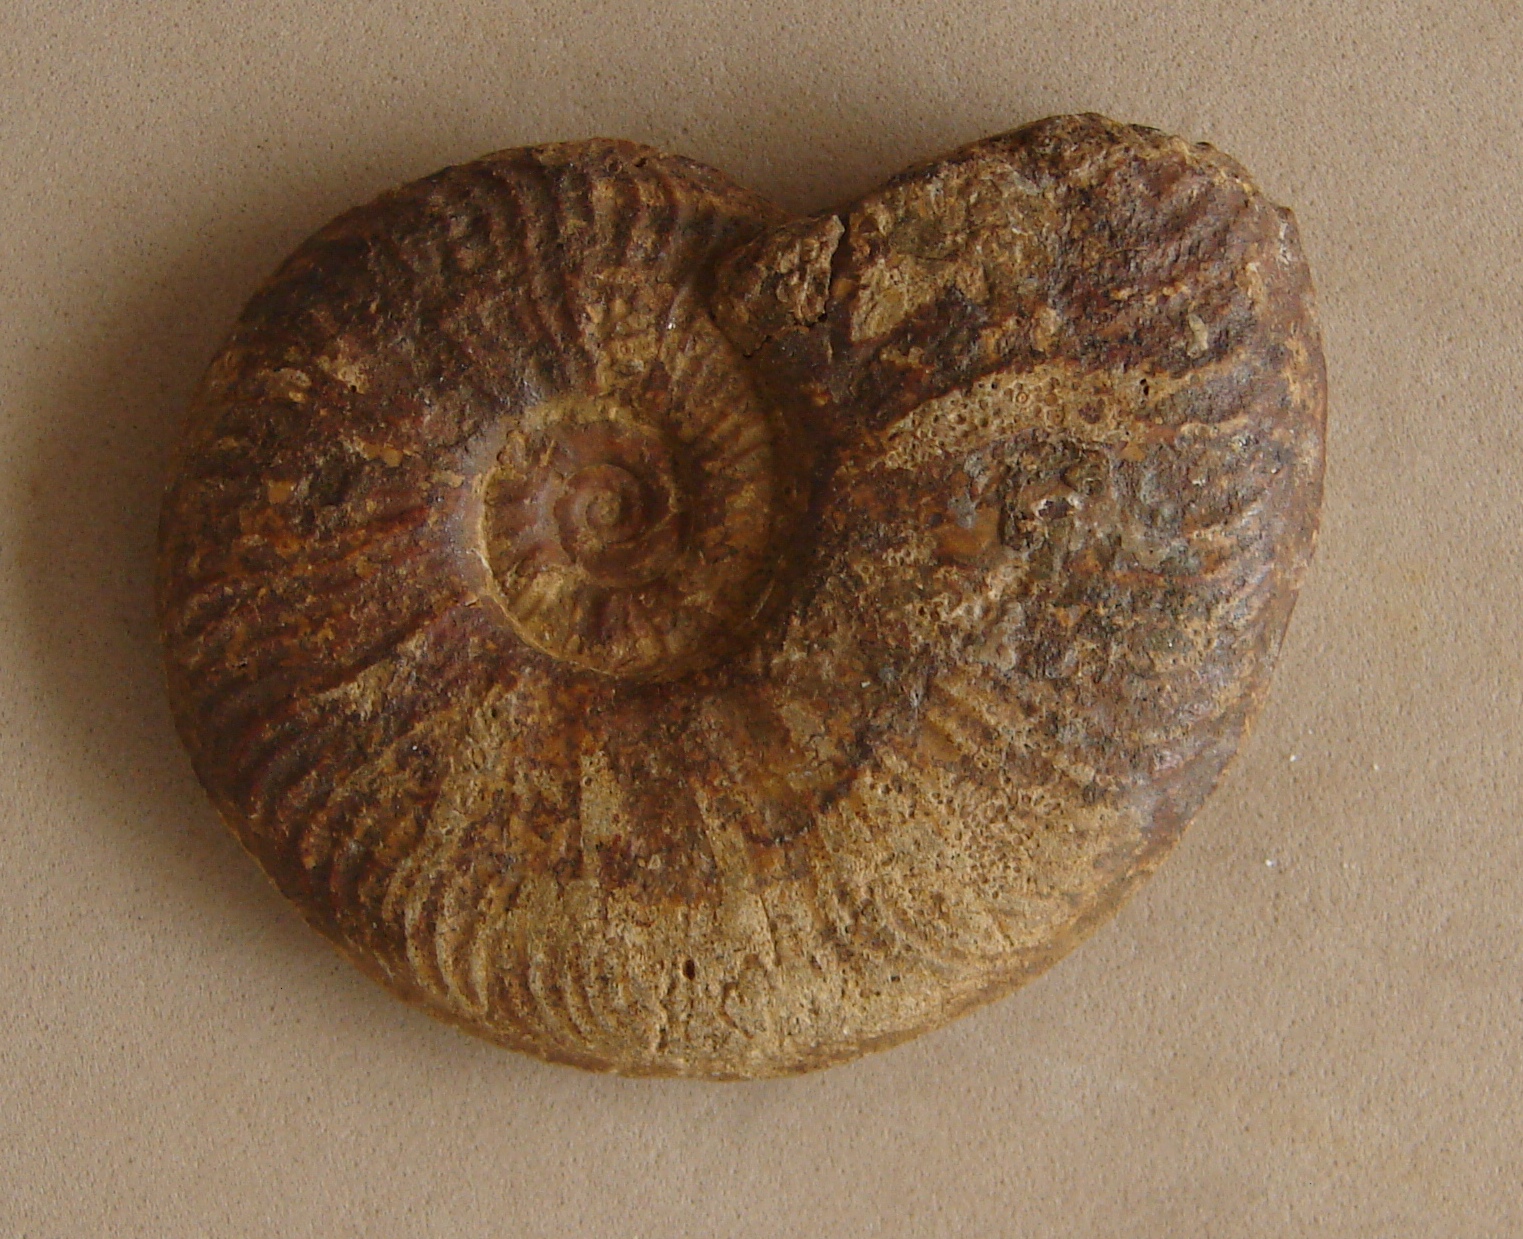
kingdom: Animalia
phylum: Mollusca
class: Cephalopoda
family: Hildoceratidae
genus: Pleydellia
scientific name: Pleydellia buckmani
